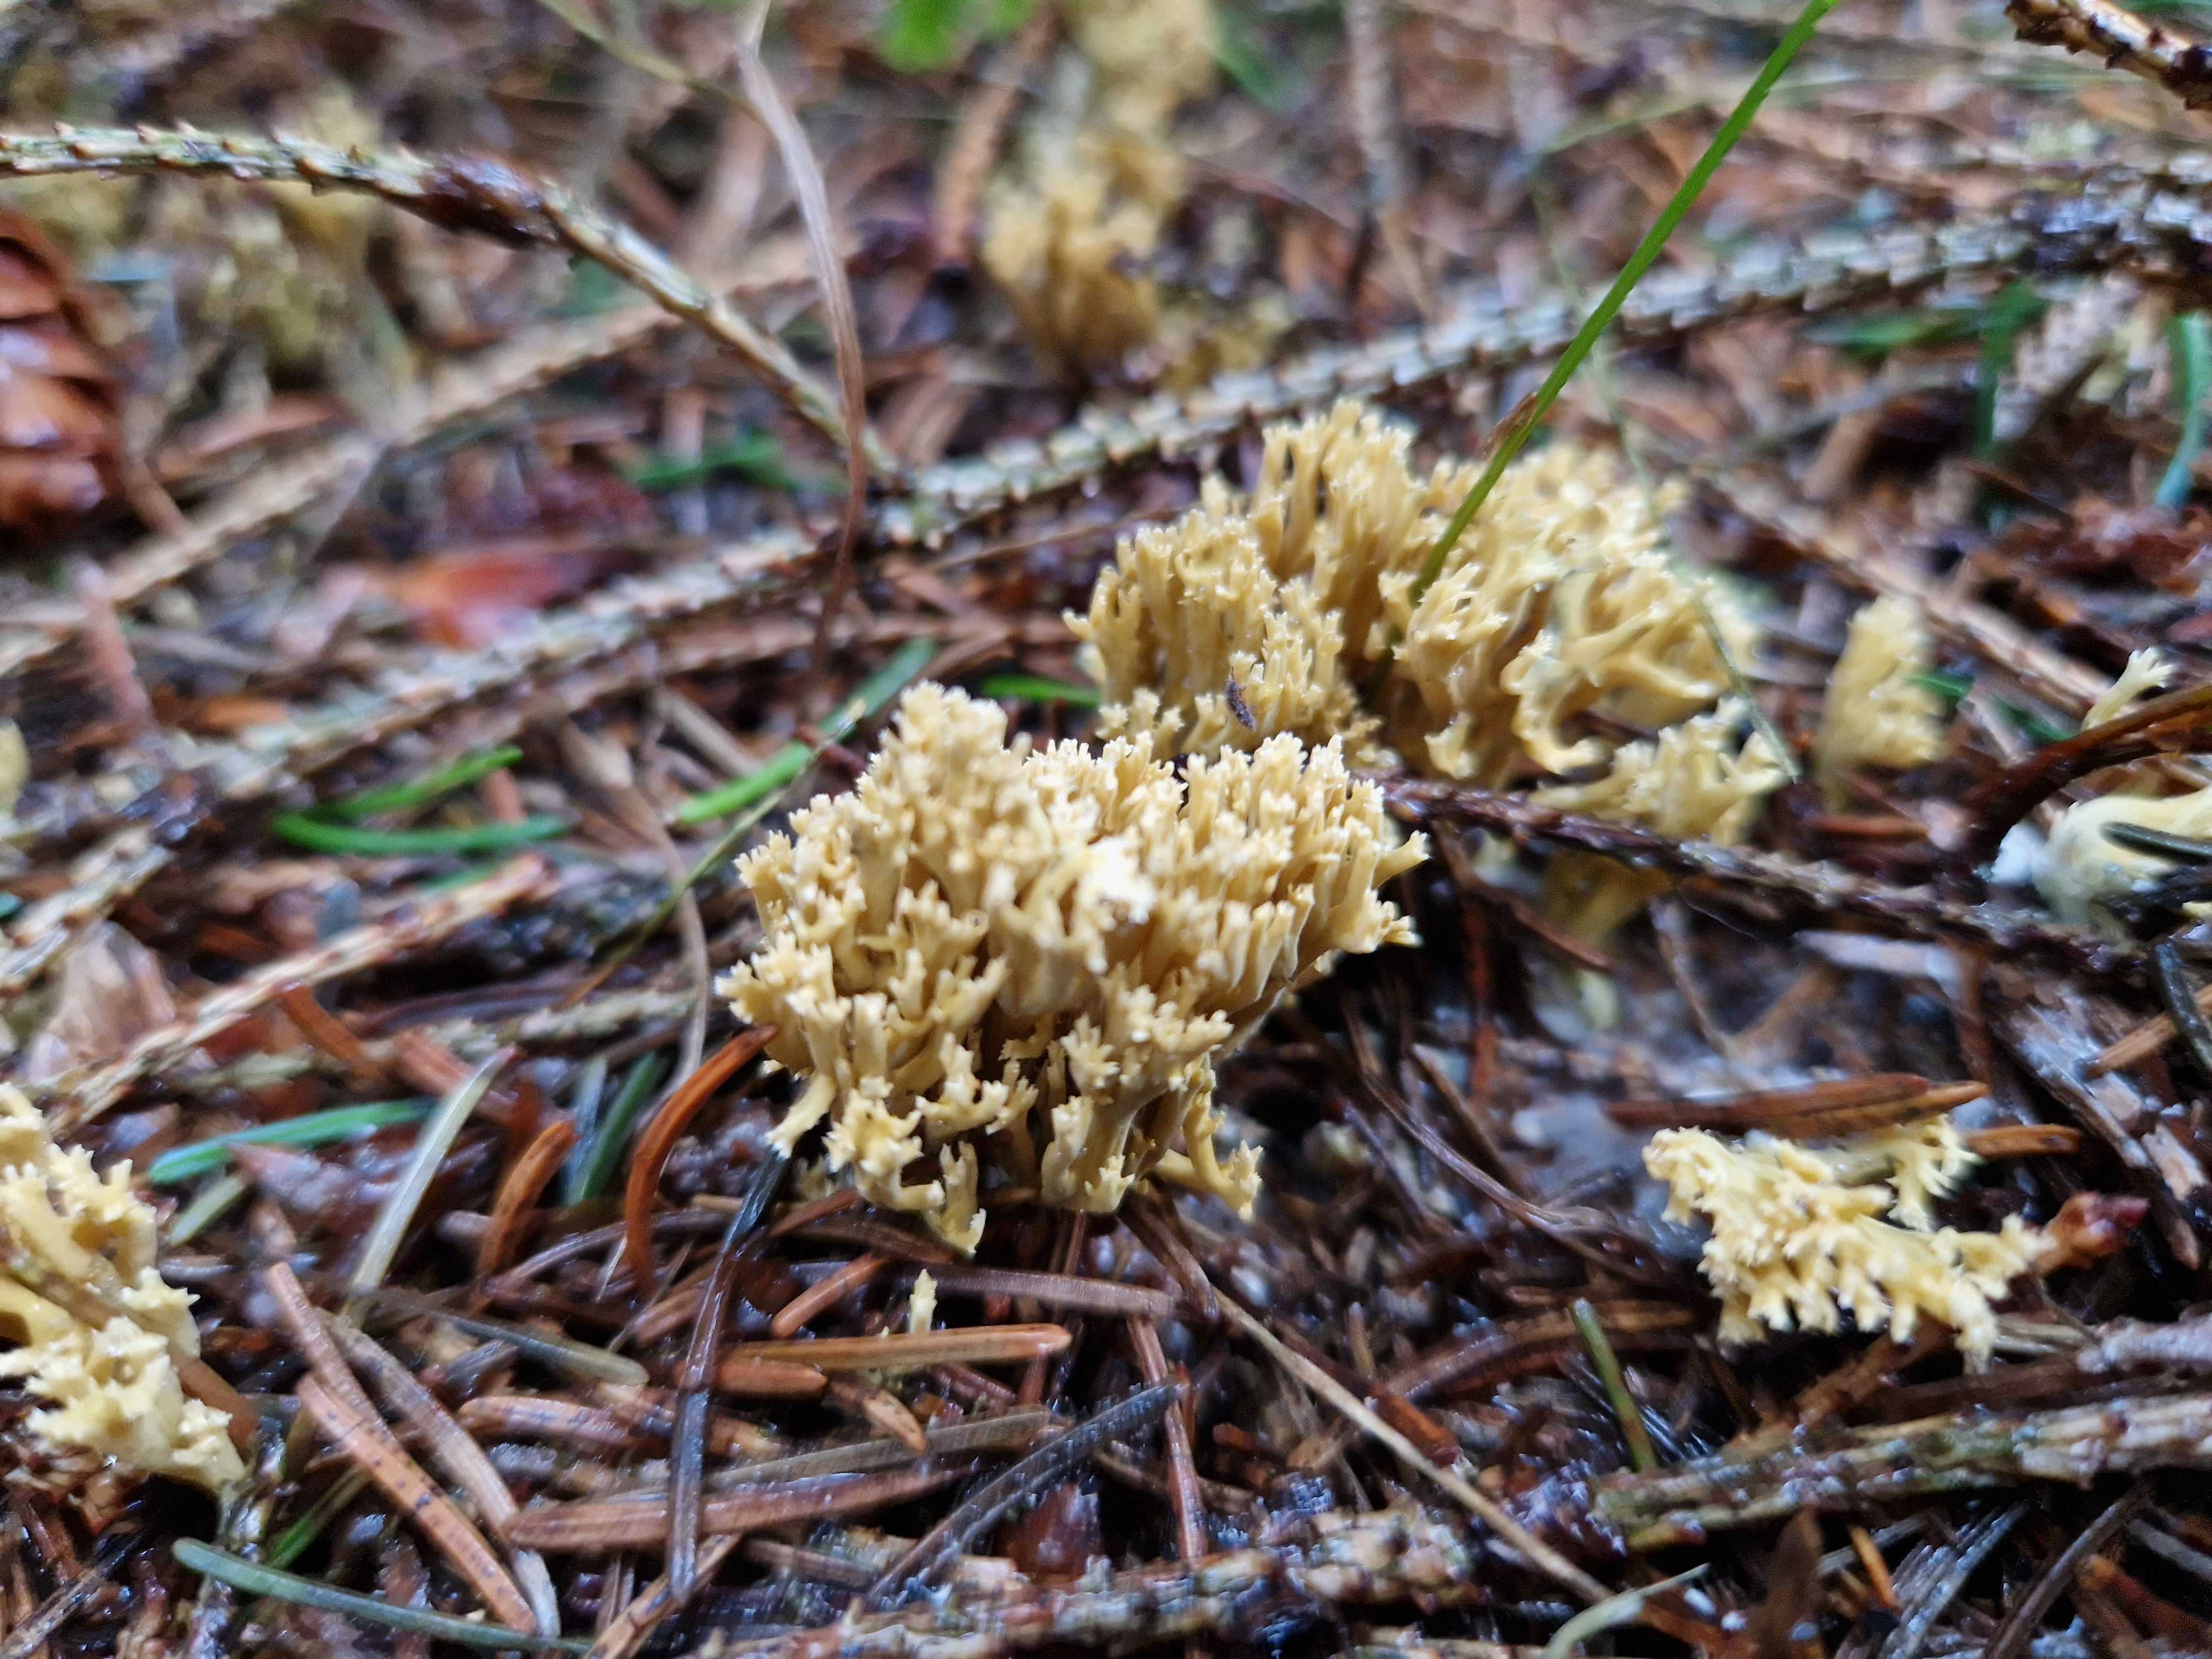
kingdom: Fungi
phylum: Basidiomycota
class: Agaricomycetes
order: Gomphales
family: Gomphaceae
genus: Phaeoclavulina
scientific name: Phaeoclavulina eumorpha
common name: gran-koralsvamp
